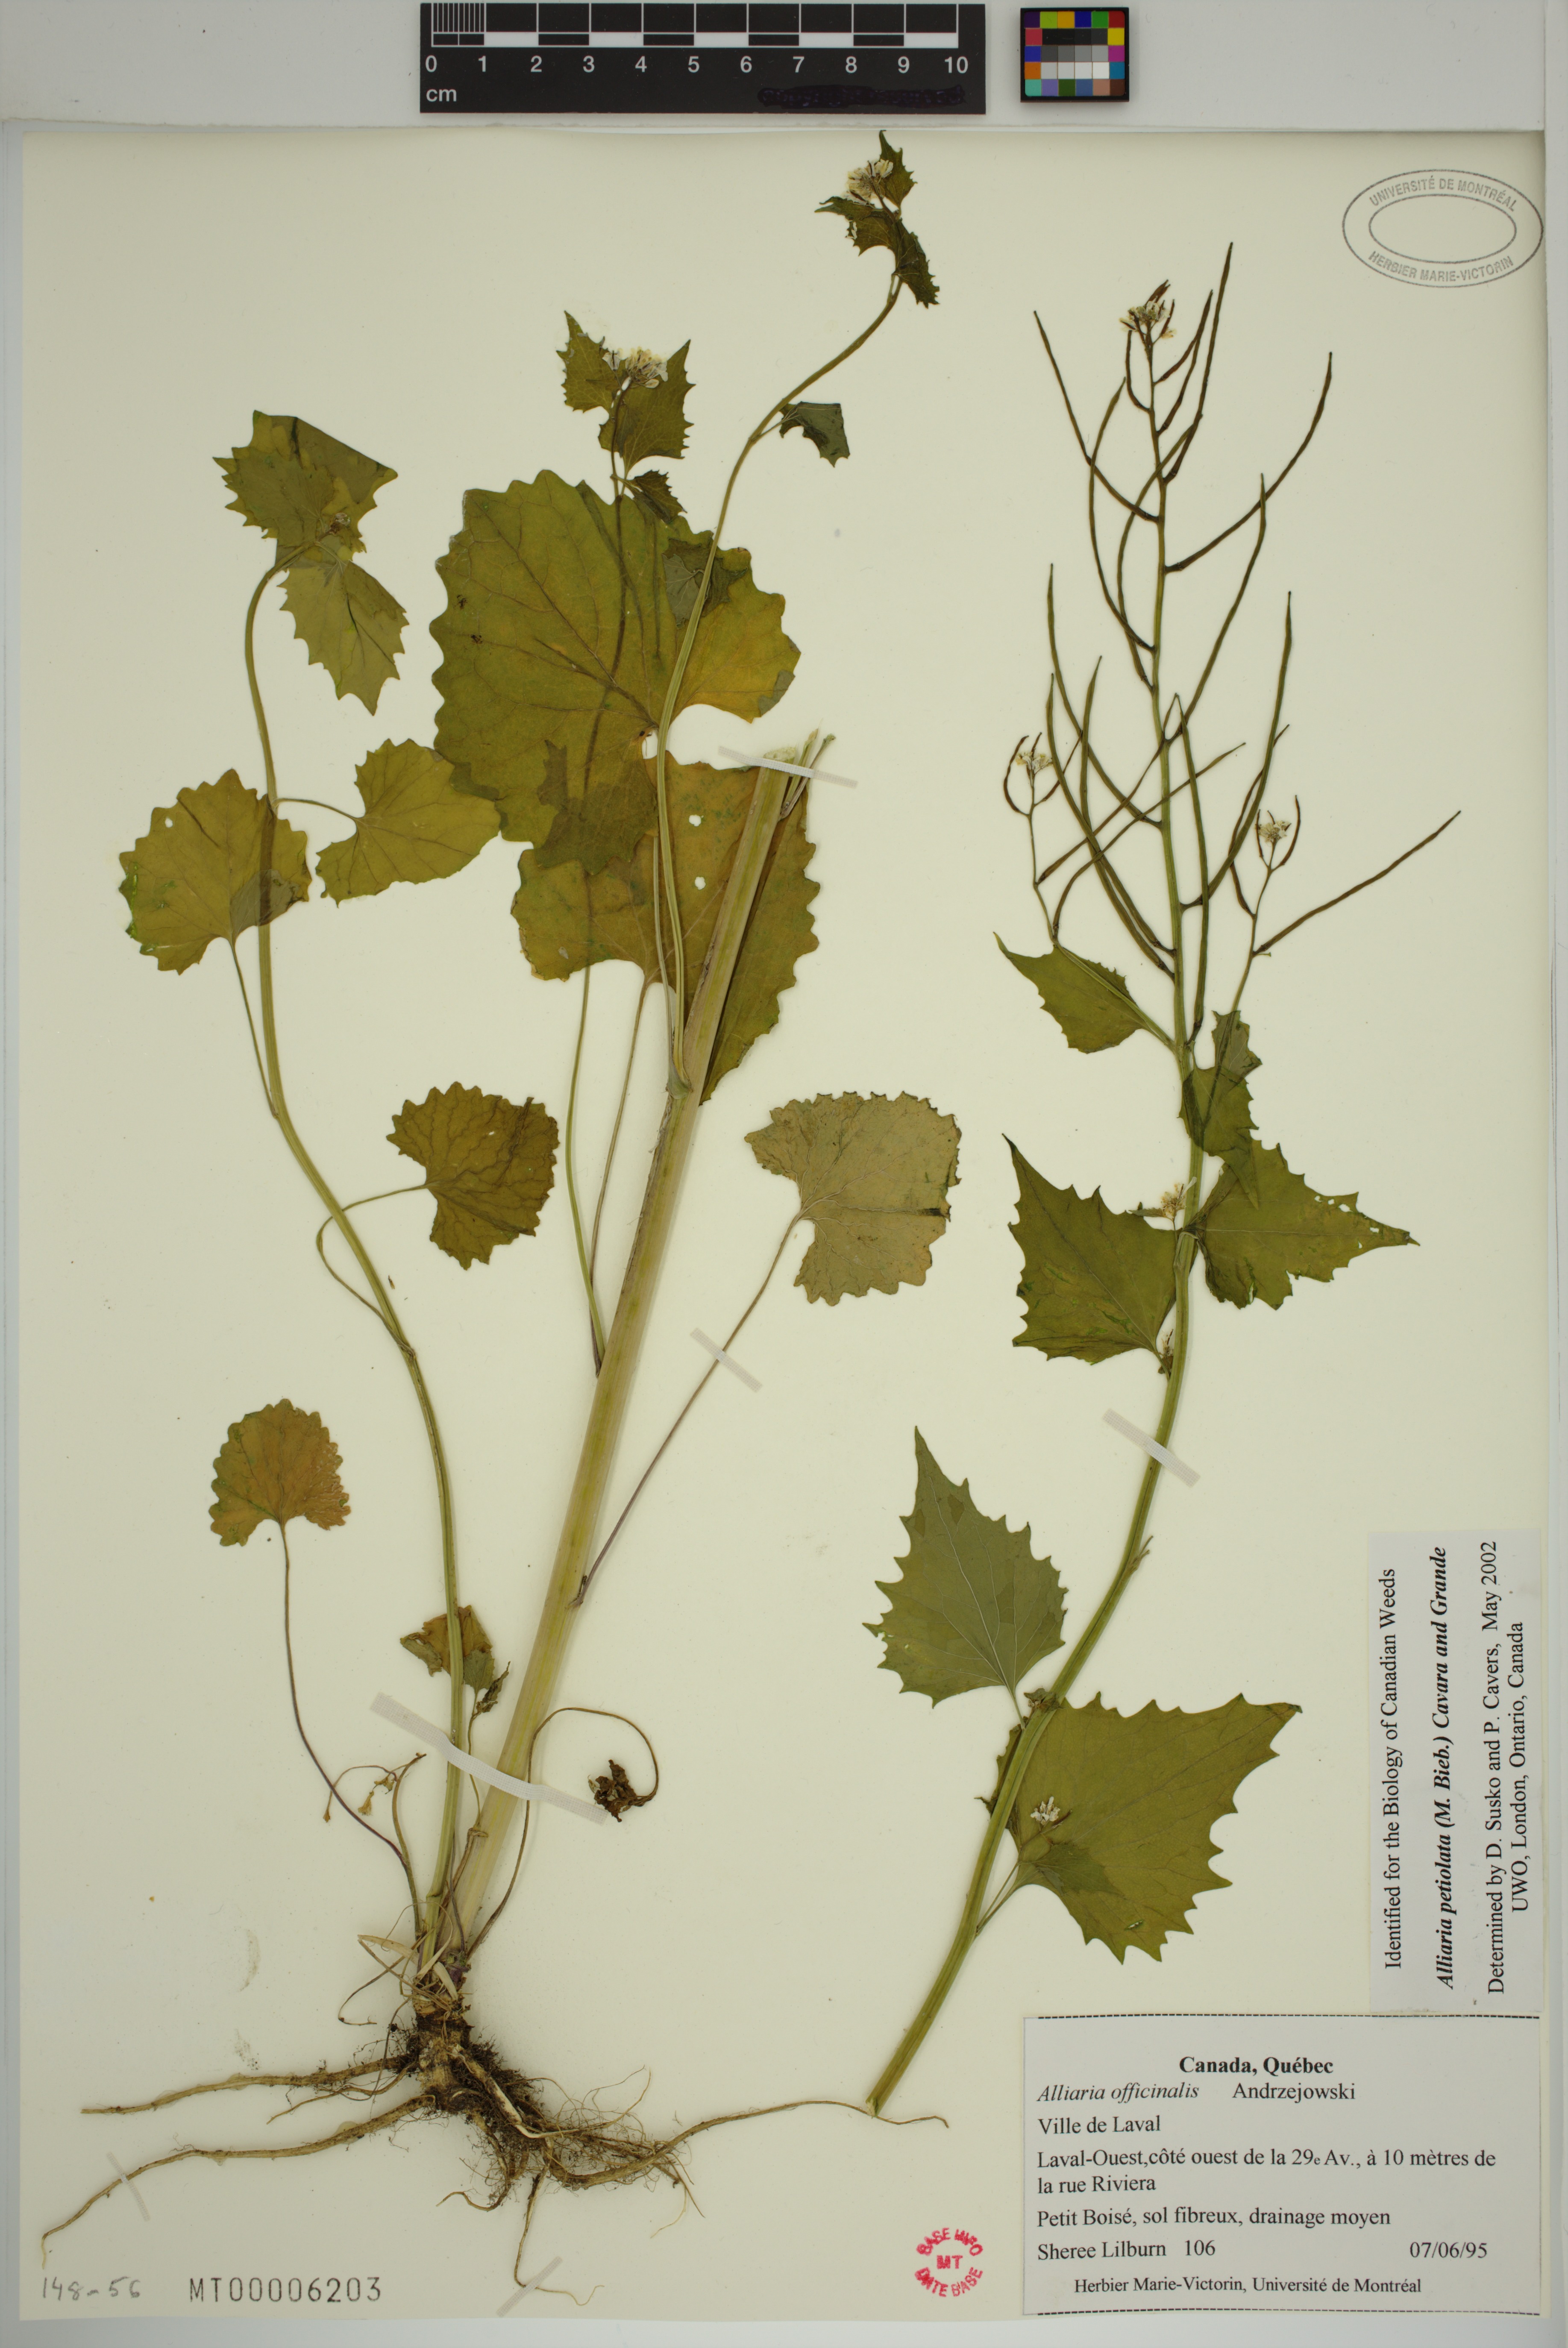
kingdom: Plantae
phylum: Tracheophyta
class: Magnoliopsida
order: Brassicales
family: Brassicaceae
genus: Alliaria
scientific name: Alliaria petiolata
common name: Garlic mustard
